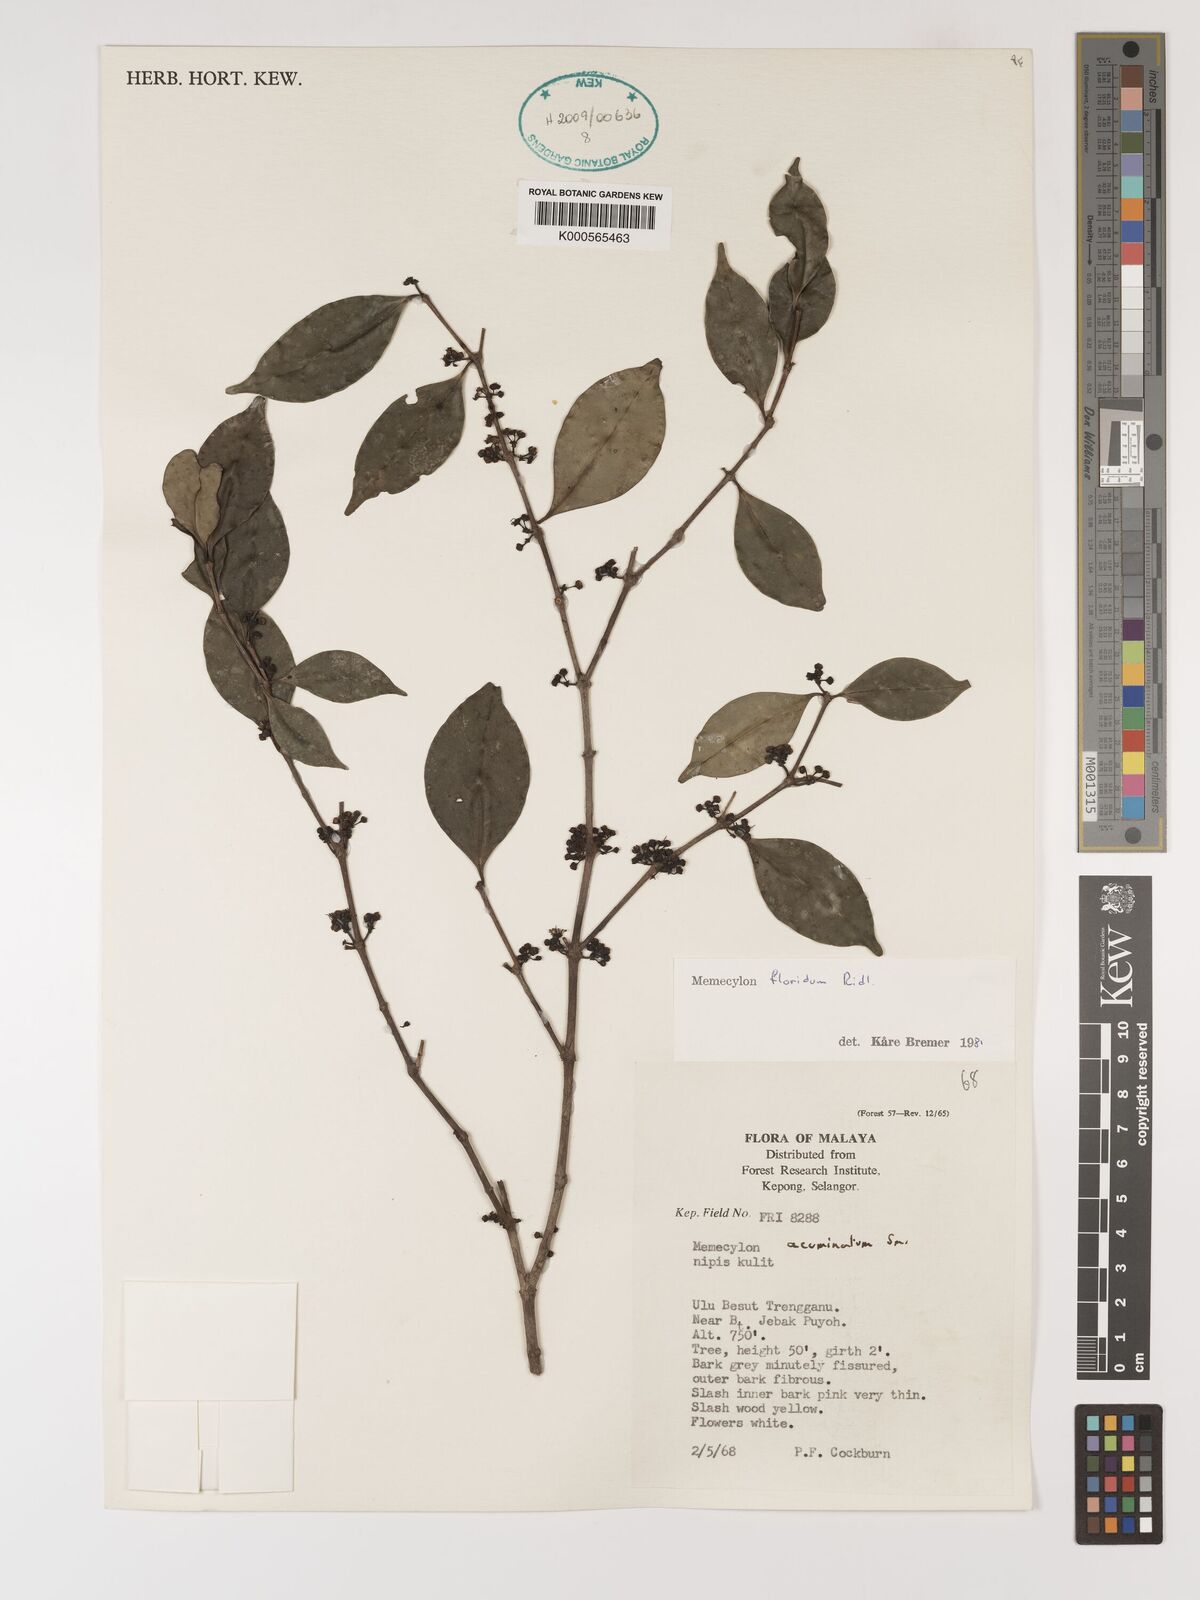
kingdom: Plantae
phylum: Tracheophyta
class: Magnoliopsida
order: Myrtales
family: Melastomataceae
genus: Memecylon
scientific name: Memecylon floridum
